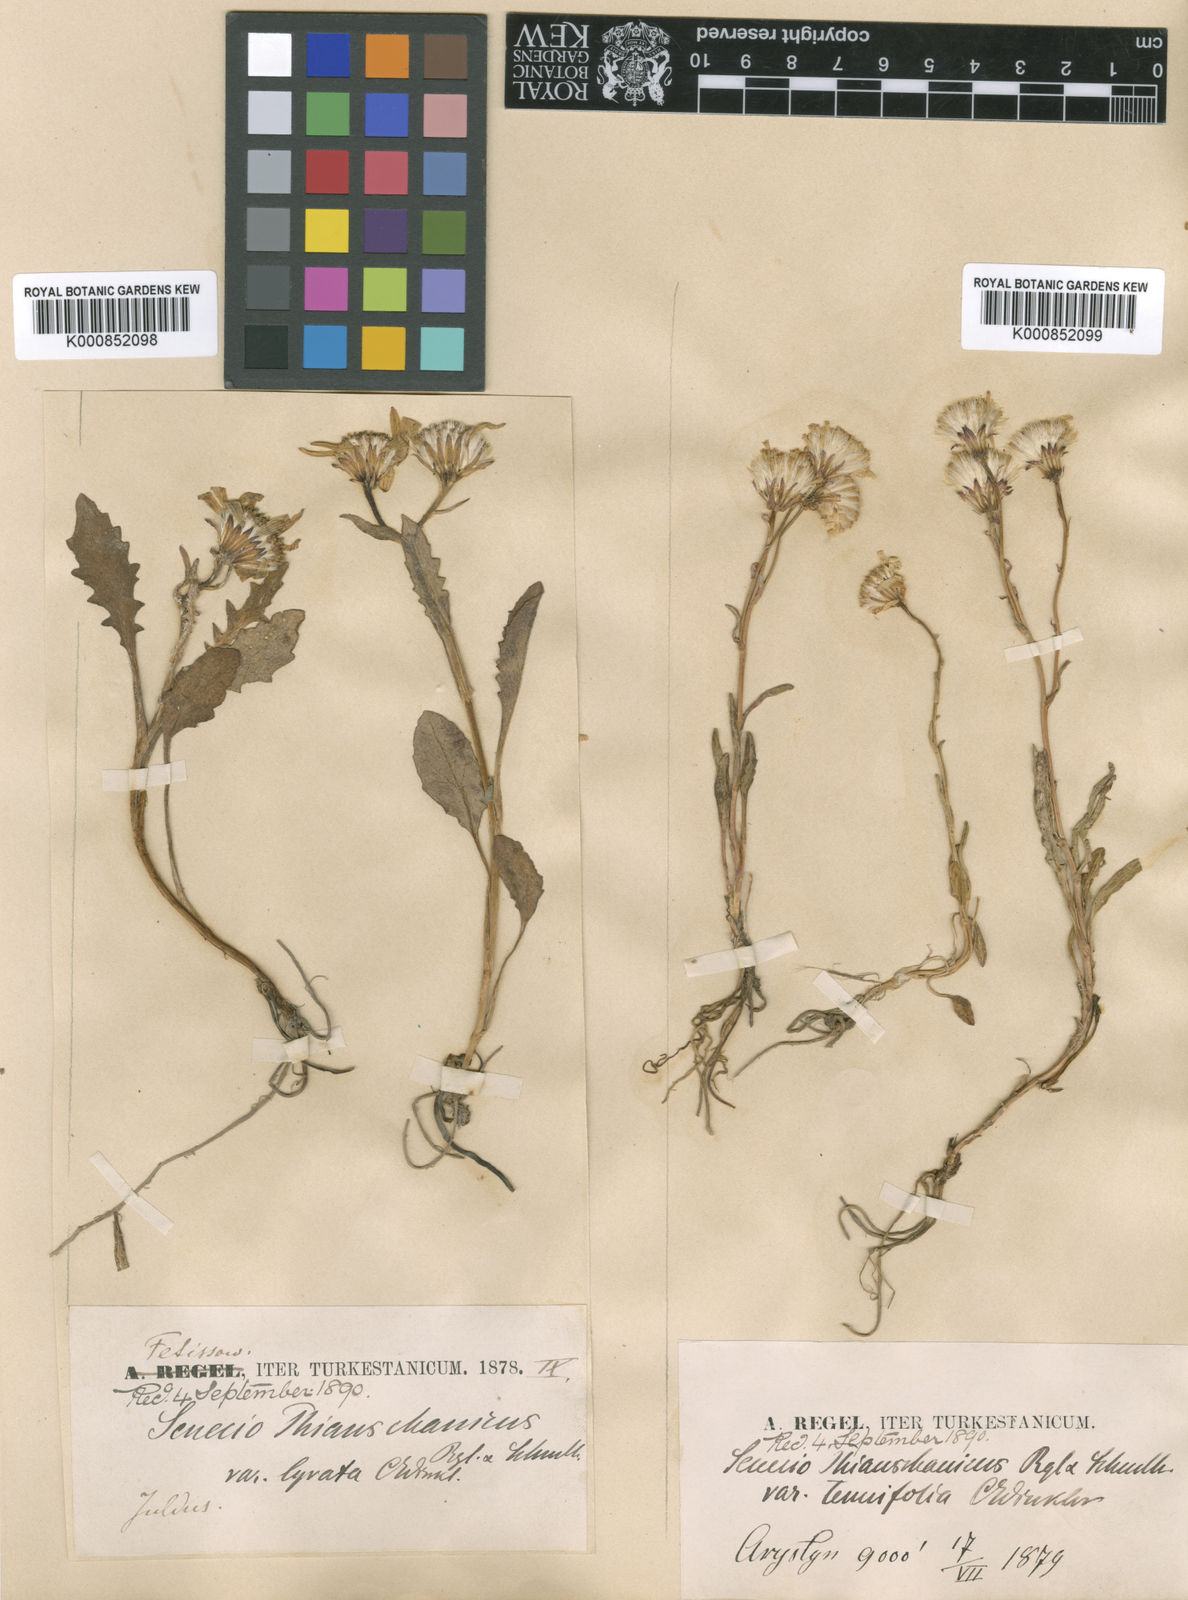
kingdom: Plantae
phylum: Tracheophyta
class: Magnoliopsida
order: Asterales
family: Asteraceae
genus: Senecio
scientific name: Senecio thianschanicus
